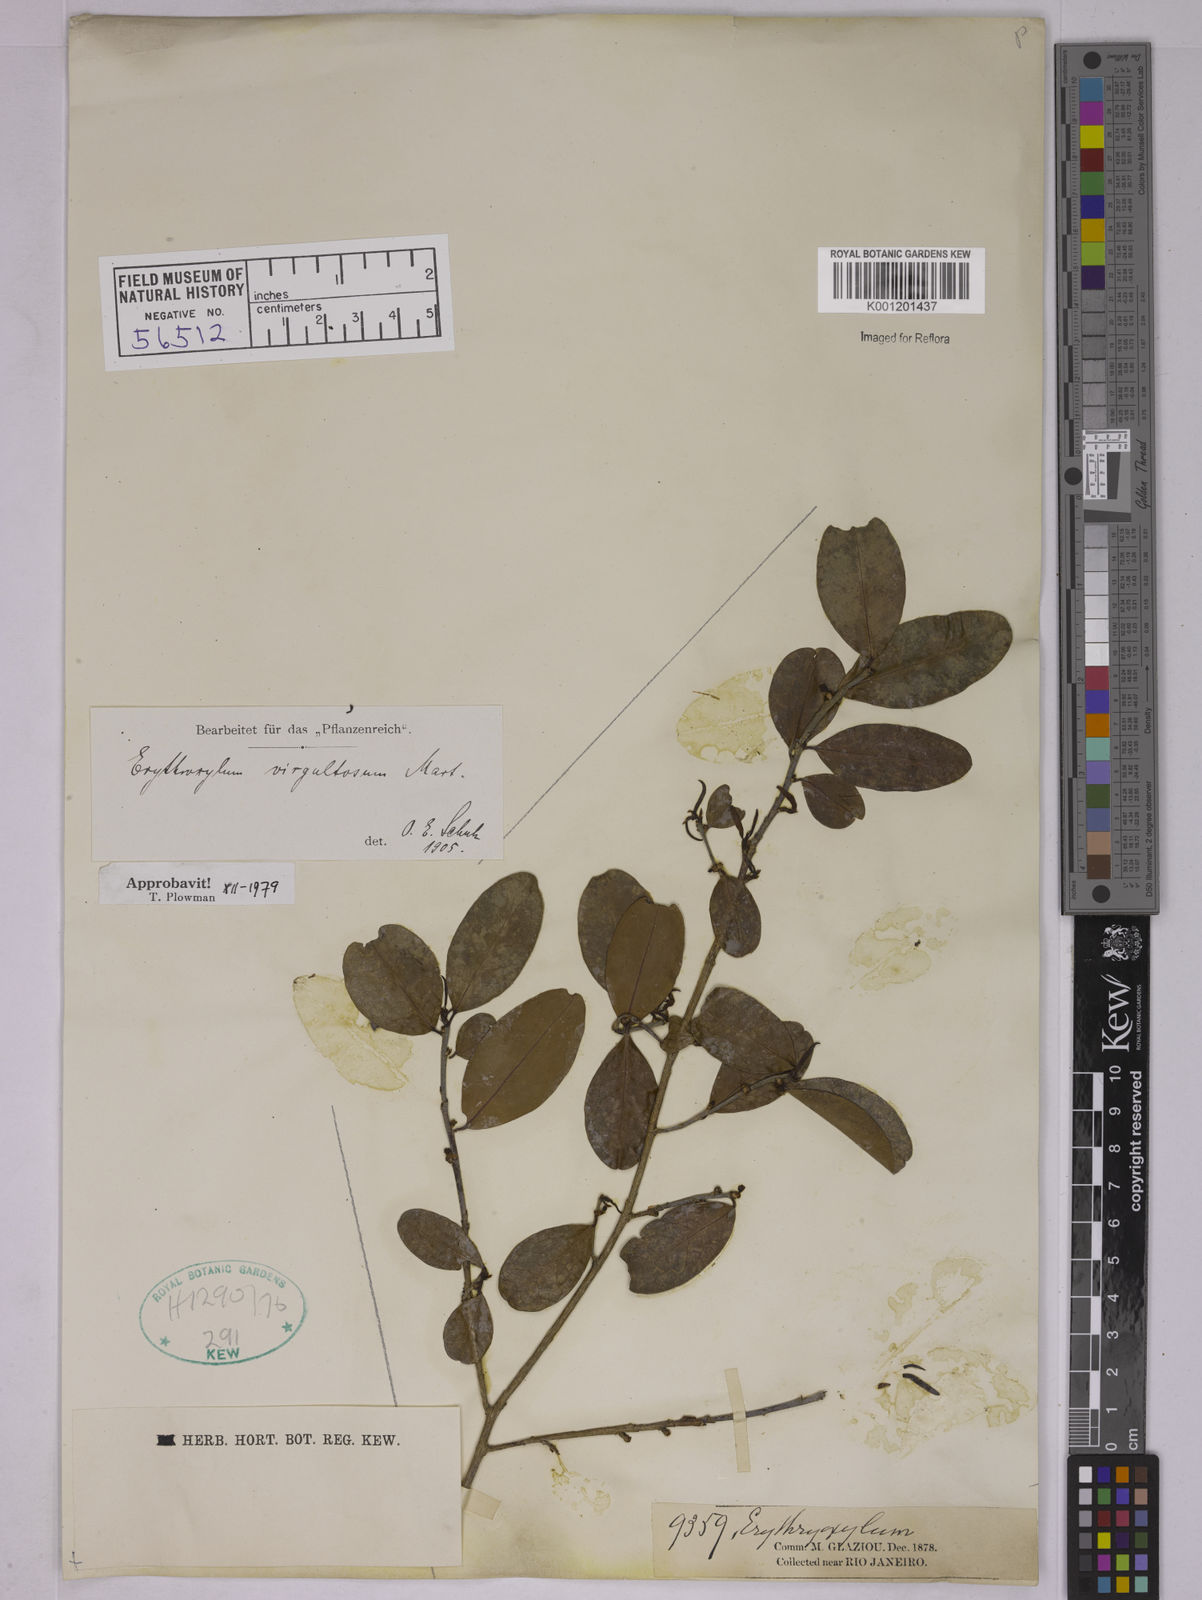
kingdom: Plantae
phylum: Tracheophyta
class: Magnoliopsida
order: Malpighiales
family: Erythroxylaceae
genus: Erythroxylum
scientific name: Erythroxylum subglaucescens
